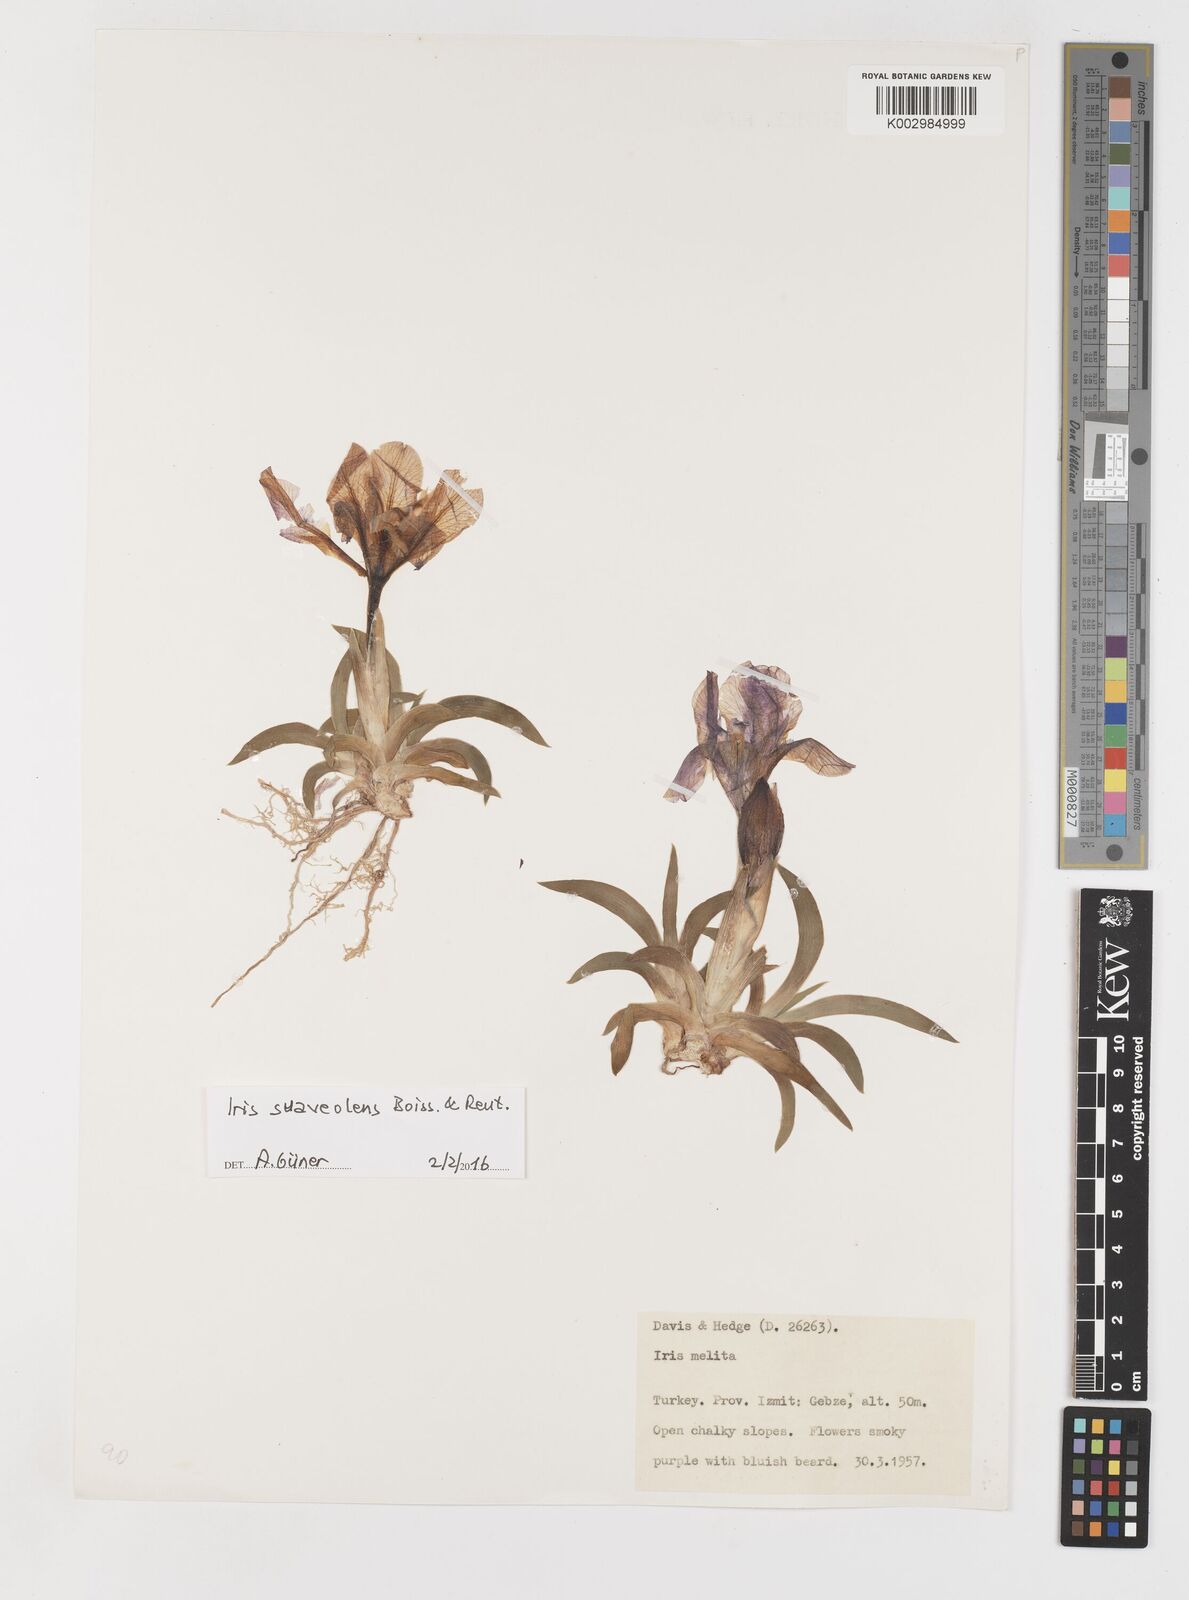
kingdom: Plantae
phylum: Tracheophyta
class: Liliopsida
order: Asparagales
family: Iridaceae
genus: Iris
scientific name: Iris suaveolens
